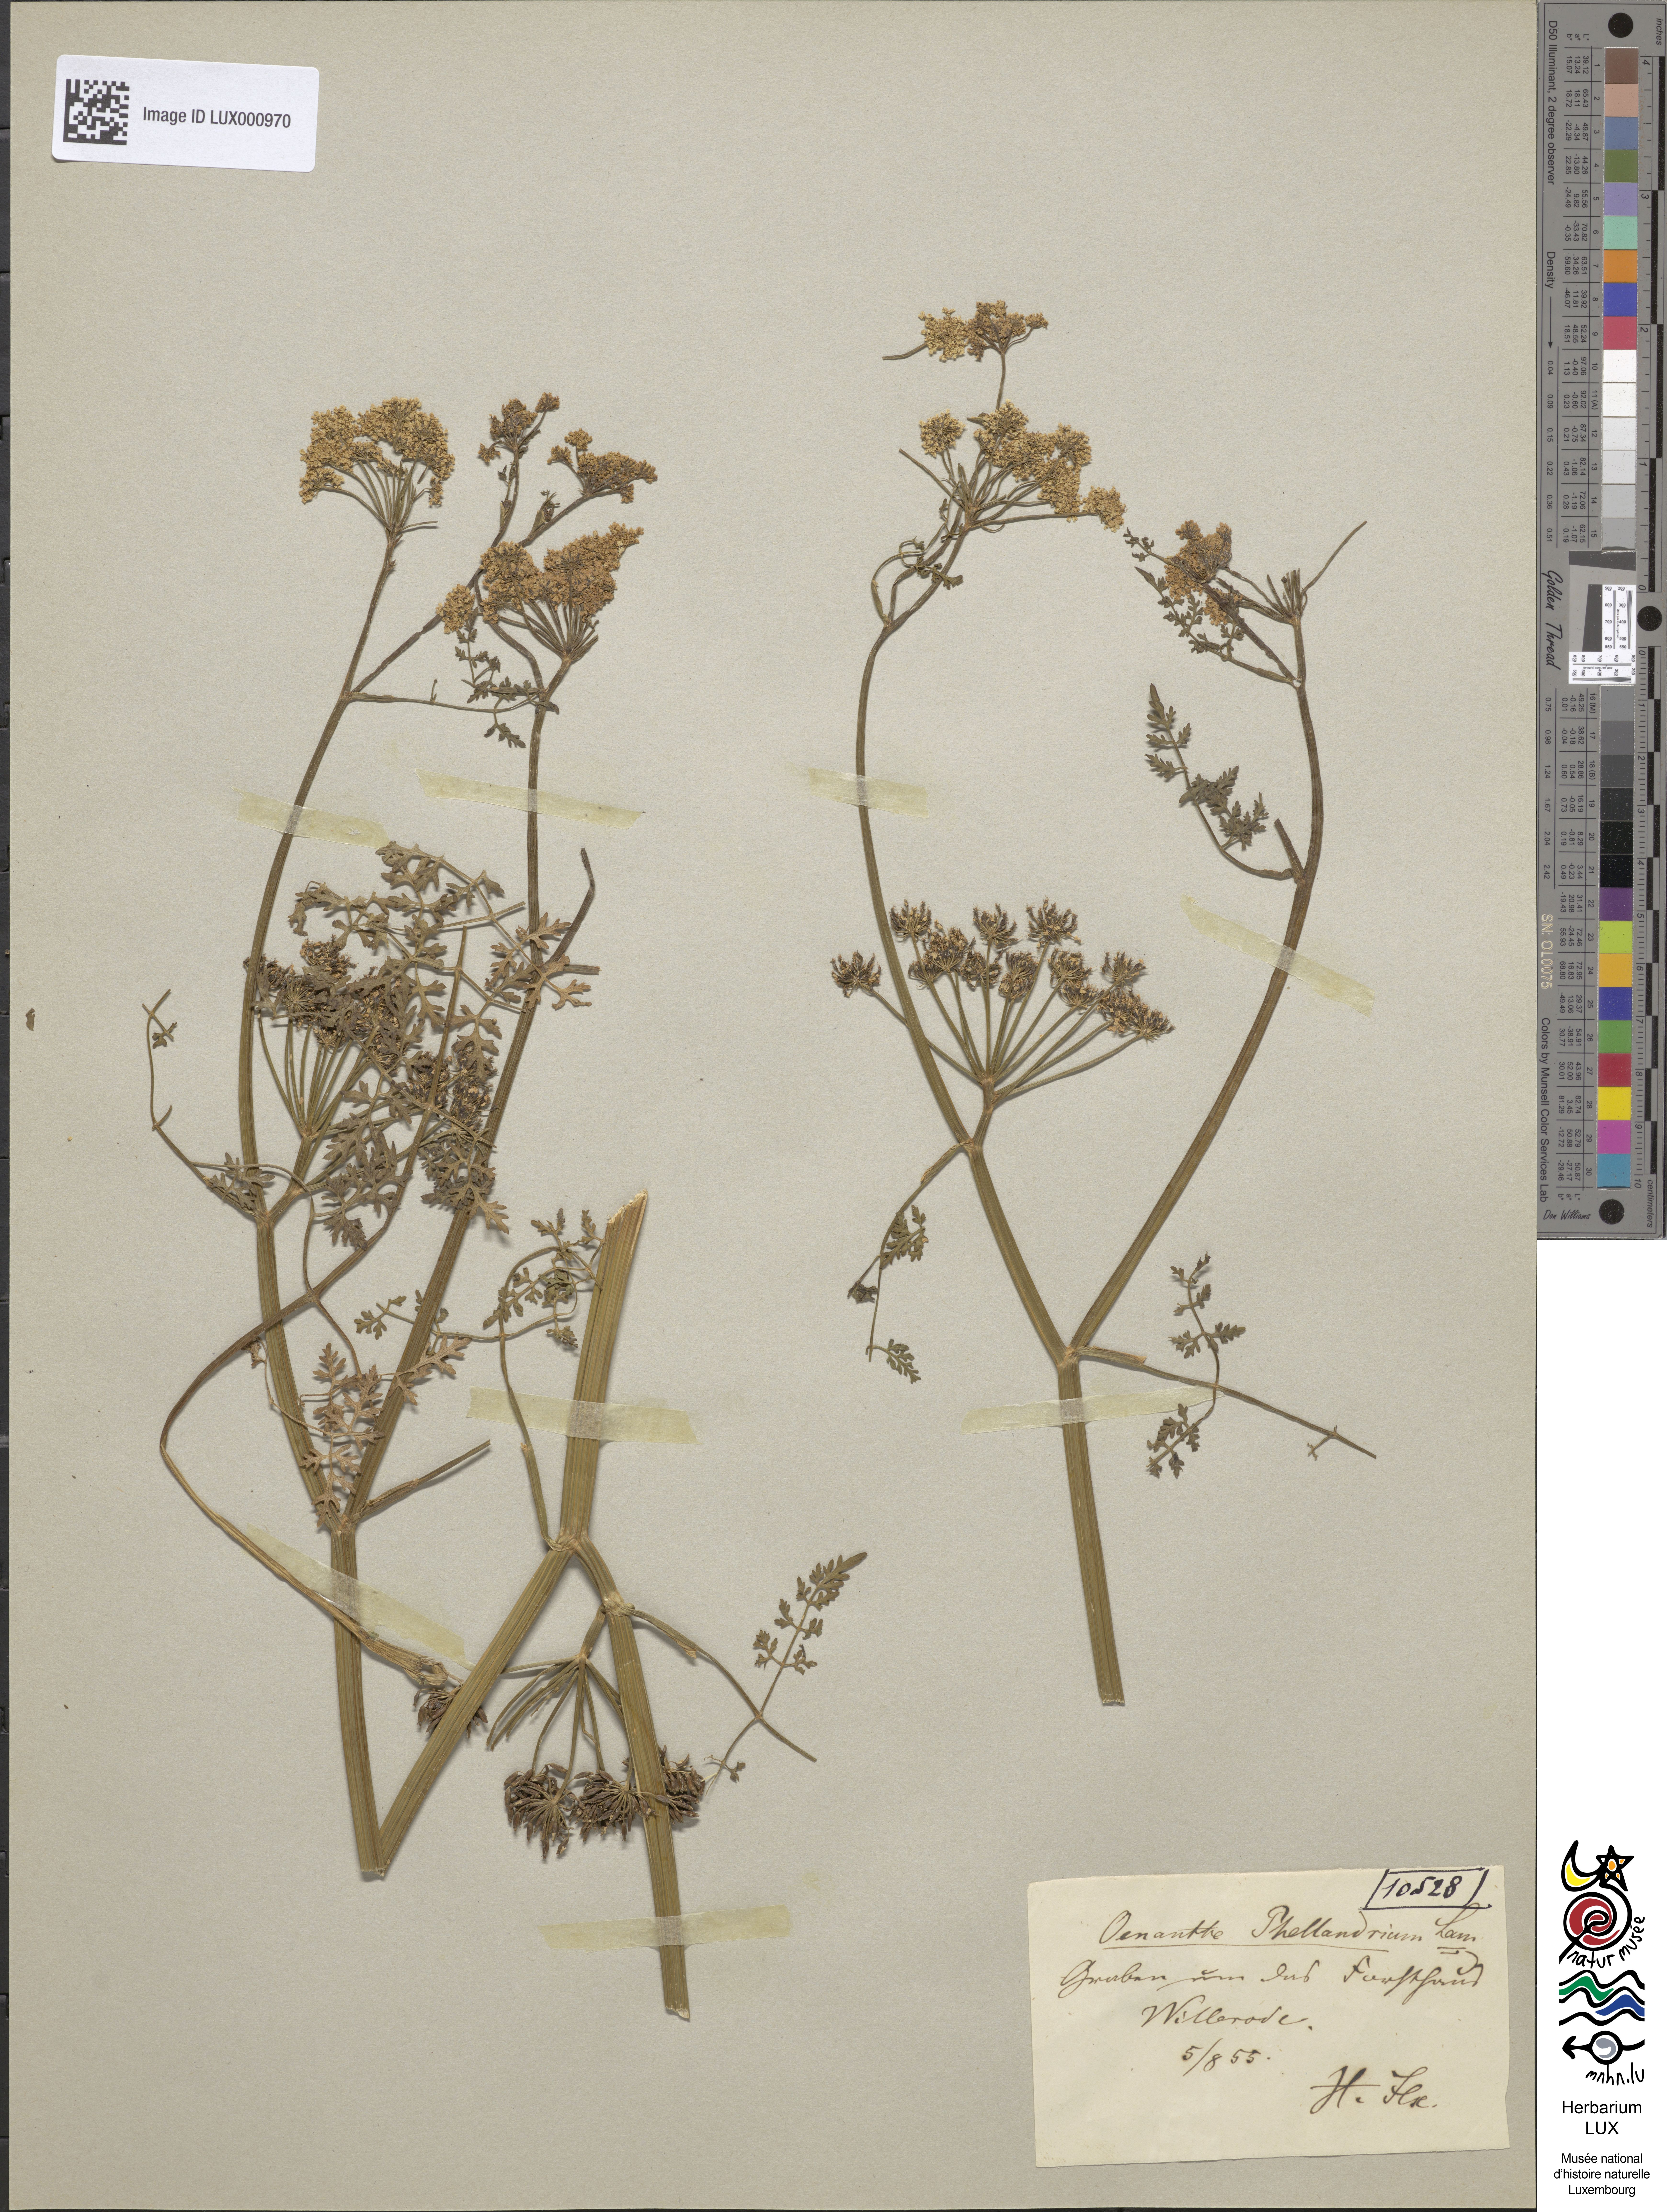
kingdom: Plantae
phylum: Tracheophyta
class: Magnoliopsida
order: Apiales
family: Apiaceae
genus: Oenanthe
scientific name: Oenanthe aquatica
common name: Fine-leaved water-dropwort
